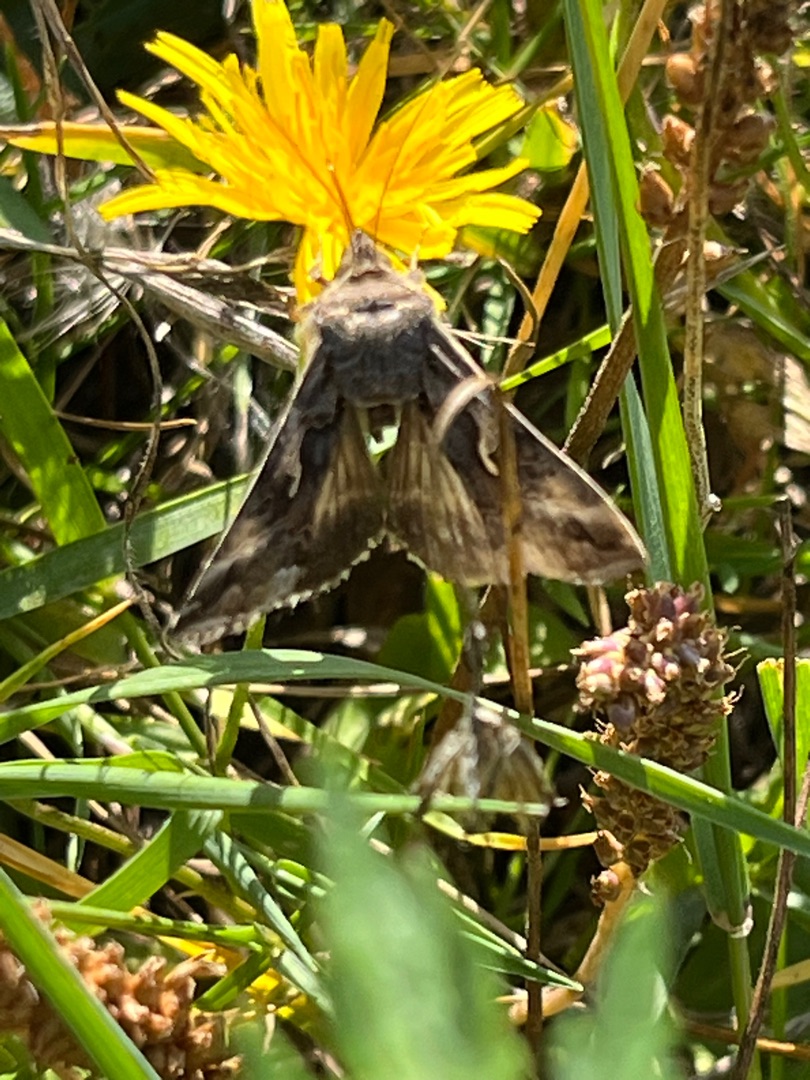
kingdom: Animalia
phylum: Arthropoda
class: Insecta
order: Lepidoptera
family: Noctuidae
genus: Autographa
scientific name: Autographa gamma
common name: Gammaugle
